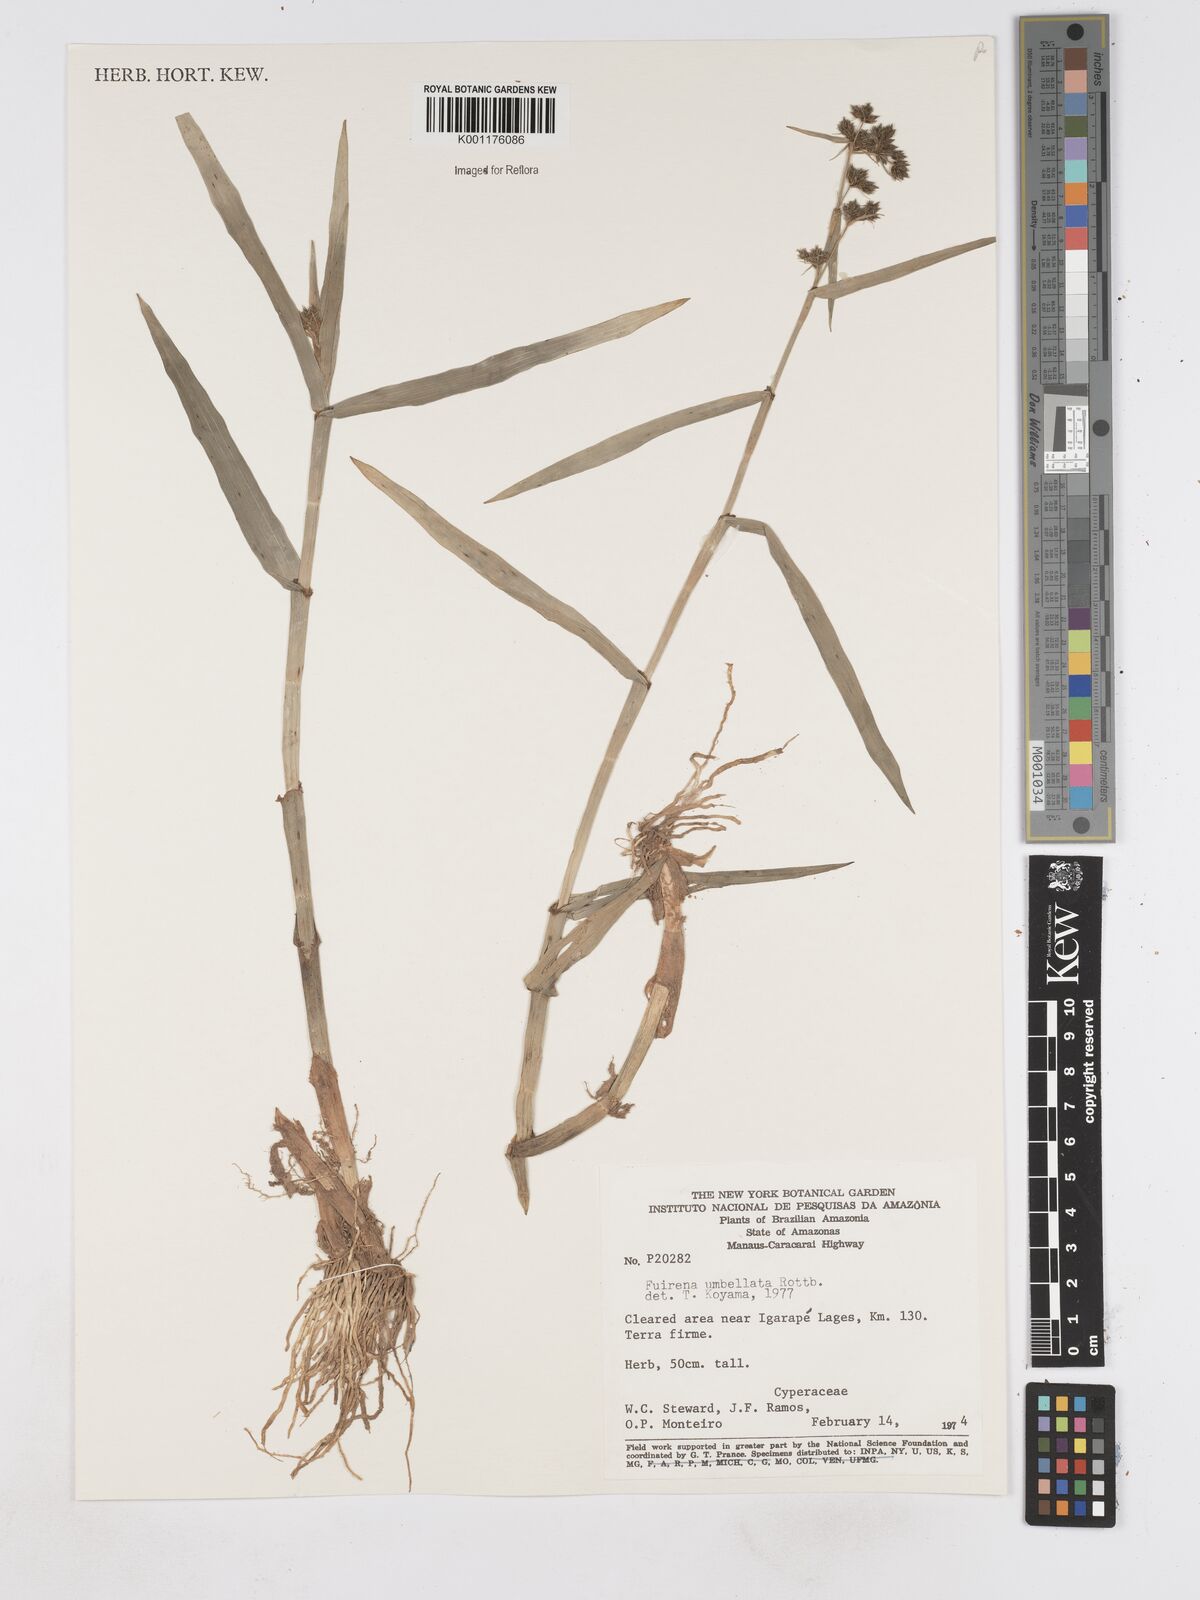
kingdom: Plantae
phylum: Tracheophyta
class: Liliopsida
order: Poales
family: Cyperaceae
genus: Fuirena
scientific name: Fuirena umbellata
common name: Yefen
